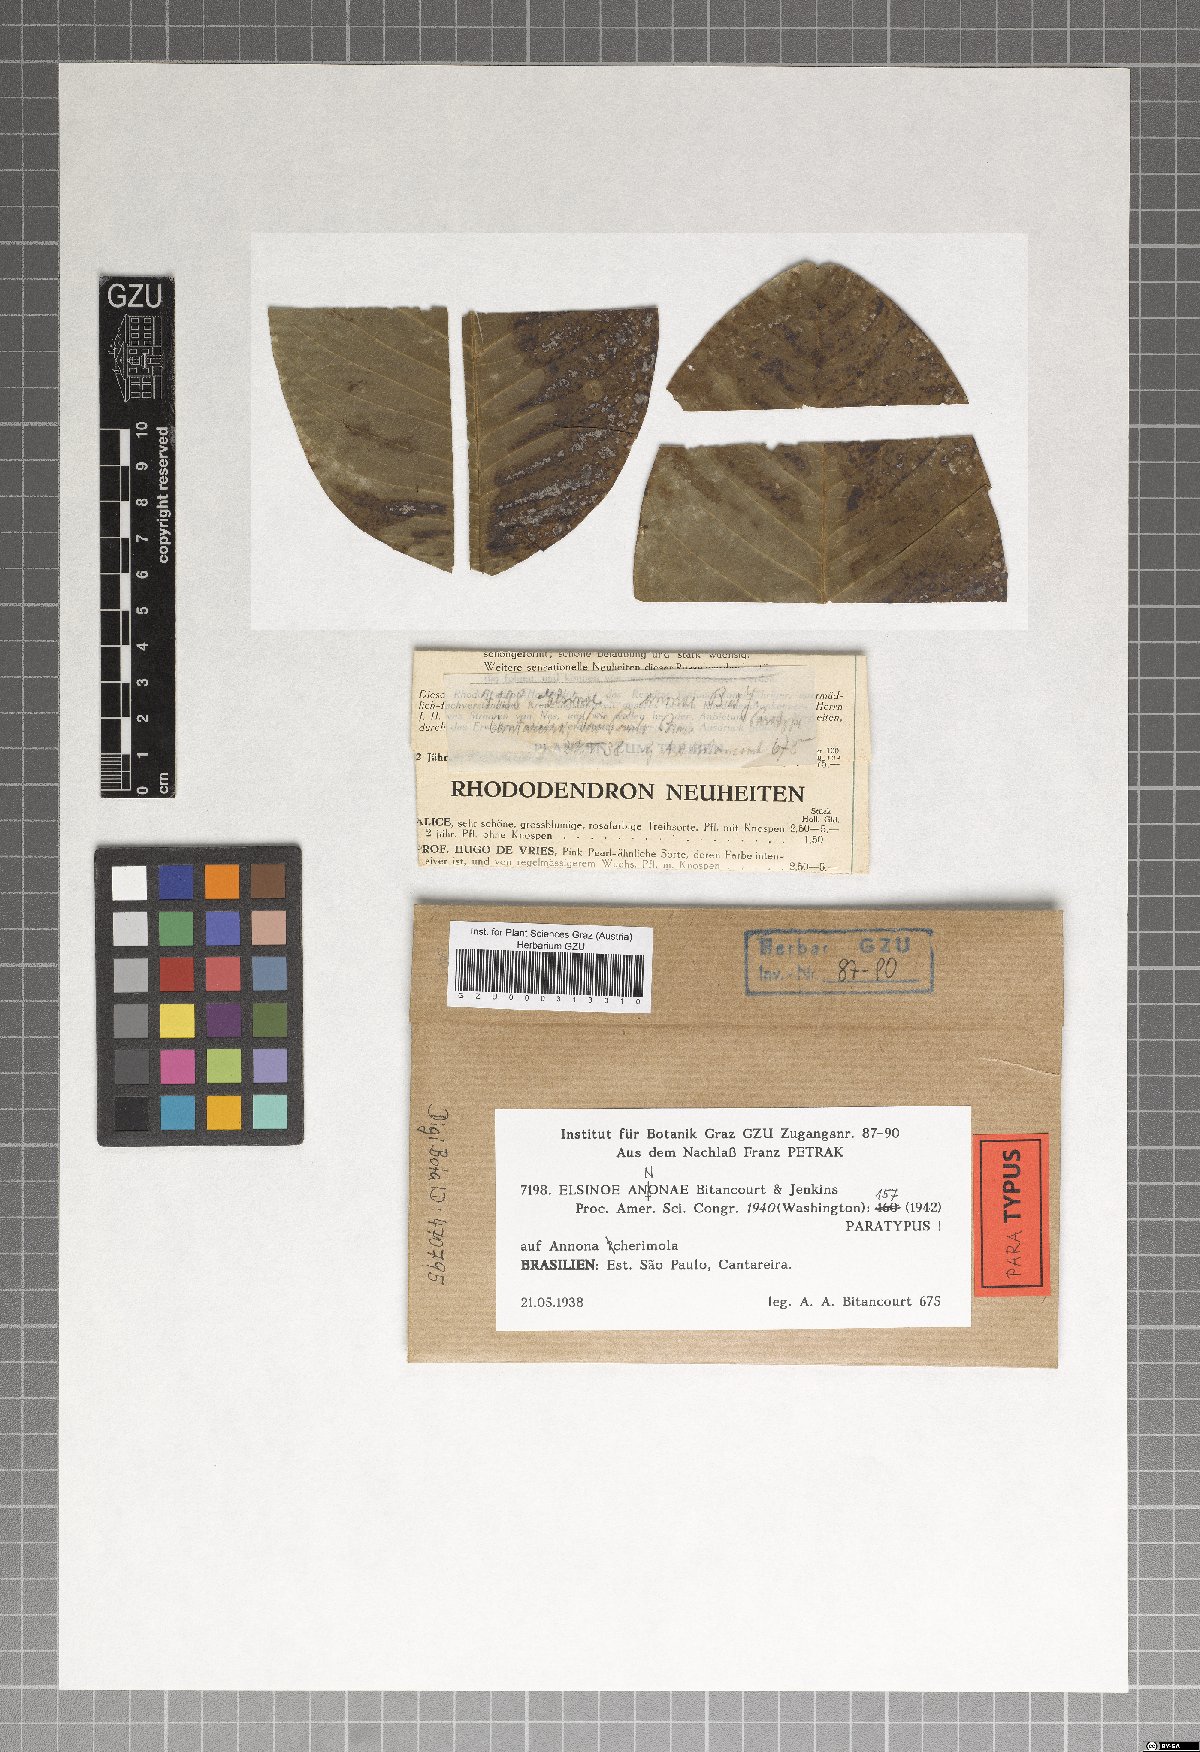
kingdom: Fungi
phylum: Ascomycota
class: Dothideomycetes
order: Myriangiales
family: Elsinoaceae
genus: Elsinoe
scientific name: Elsinoe annonae
